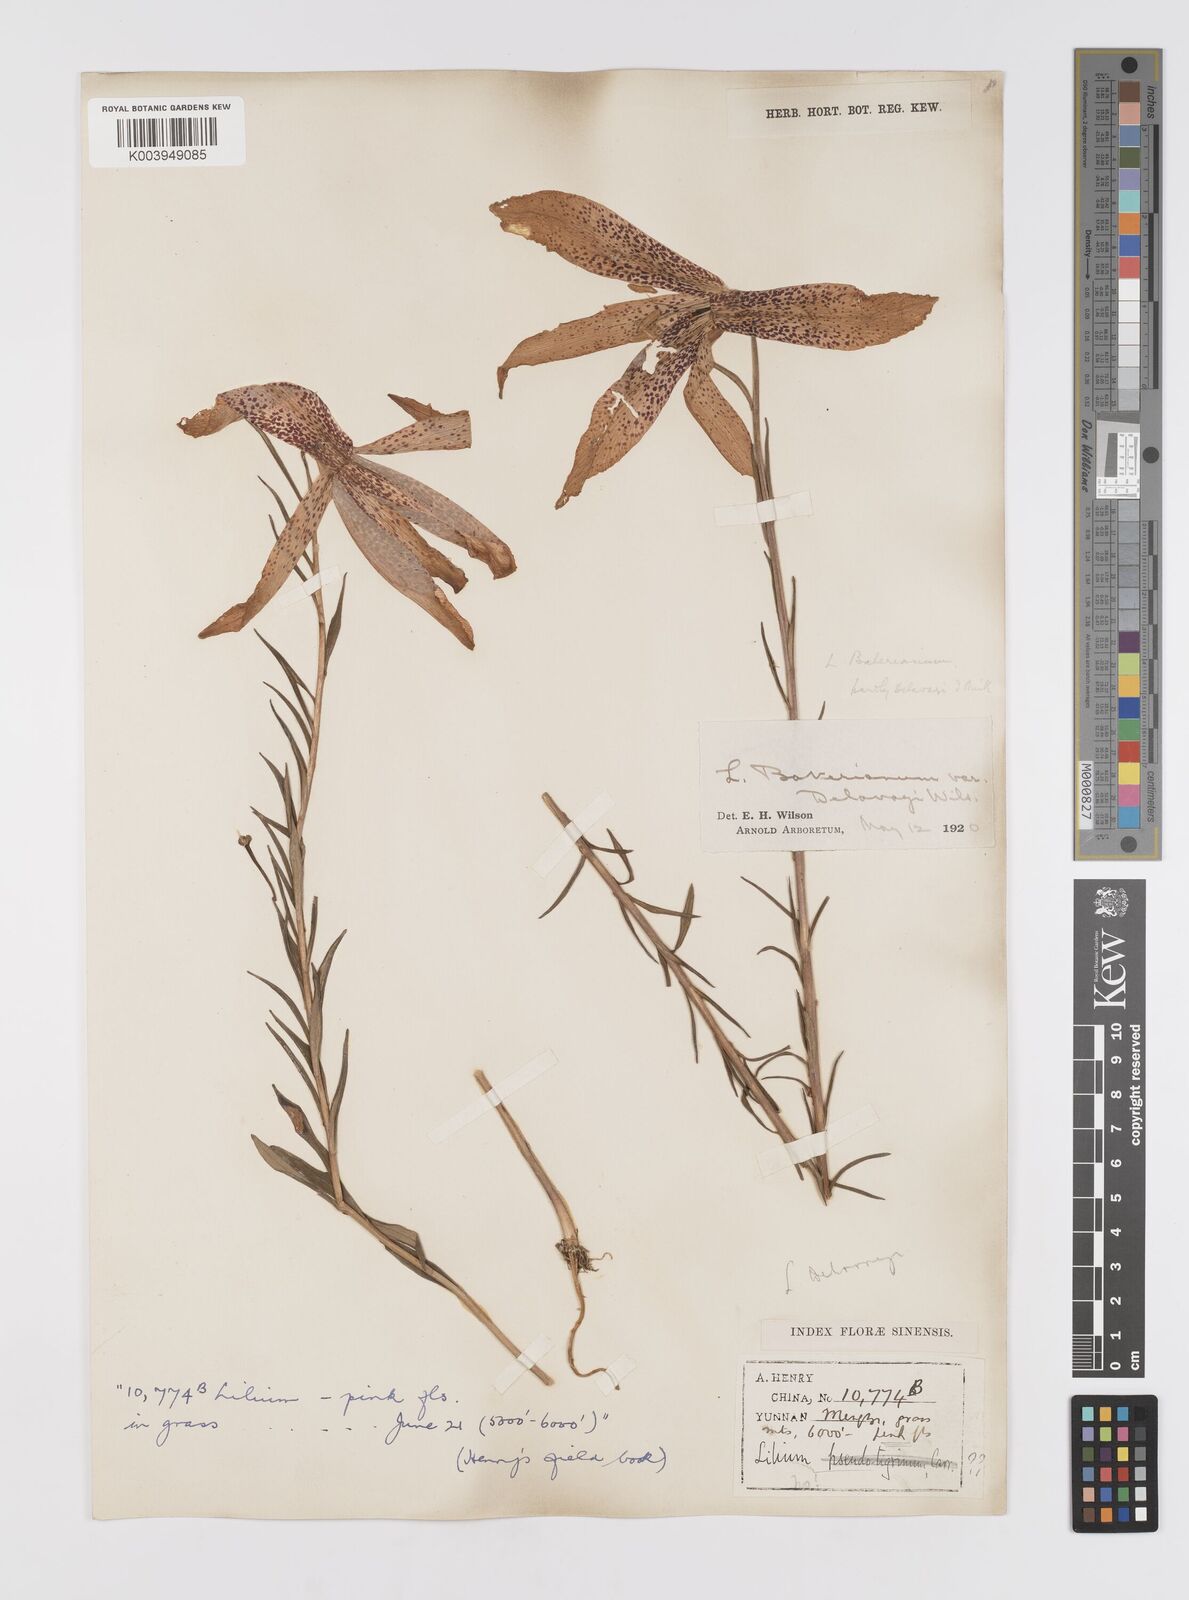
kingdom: Plantae
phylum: Tracheophyta
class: Liliopsida
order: Liliales
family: Liliaceae
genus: Lilium
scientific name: Lilium bakerianum
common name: Baker's lily
